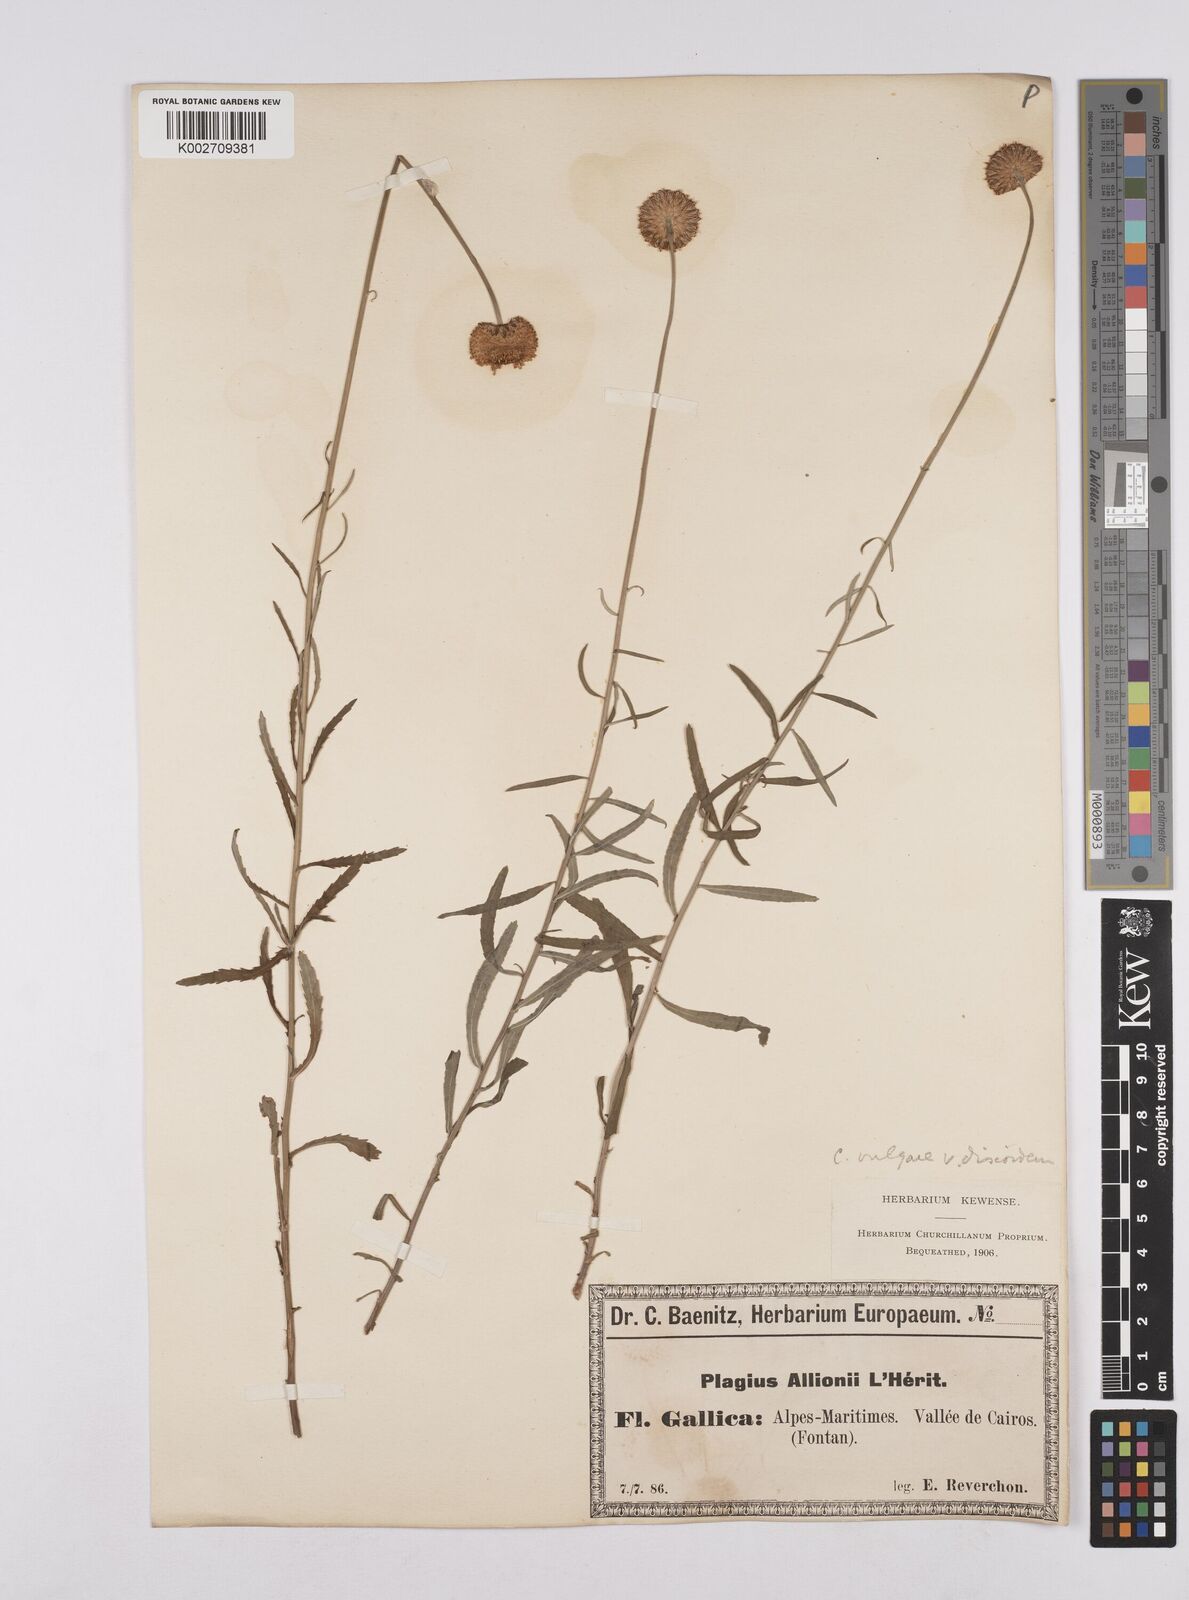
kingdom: Plantae
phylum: Tracheophyta
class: Magnoliopsida
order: Asterales
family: Asteraceae
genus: Leucanthemum
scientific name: Leucanthemum vulgare
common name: Oxeye daisy
